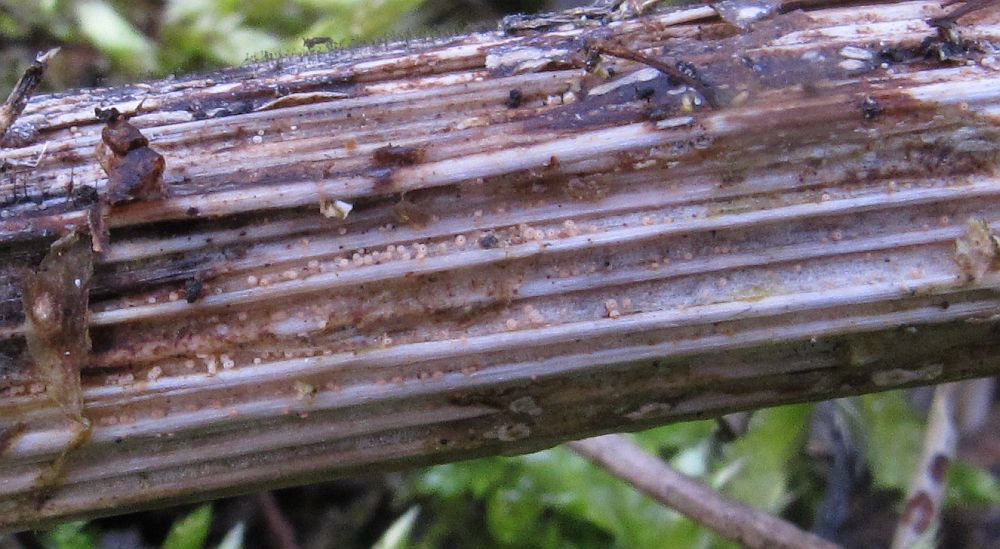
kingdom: Fungi
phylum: Ascomycota
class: Dothideomycetes
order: Pleosporales
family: Torulaceae
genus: Dendryphion
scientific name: Dendryphion comosum
